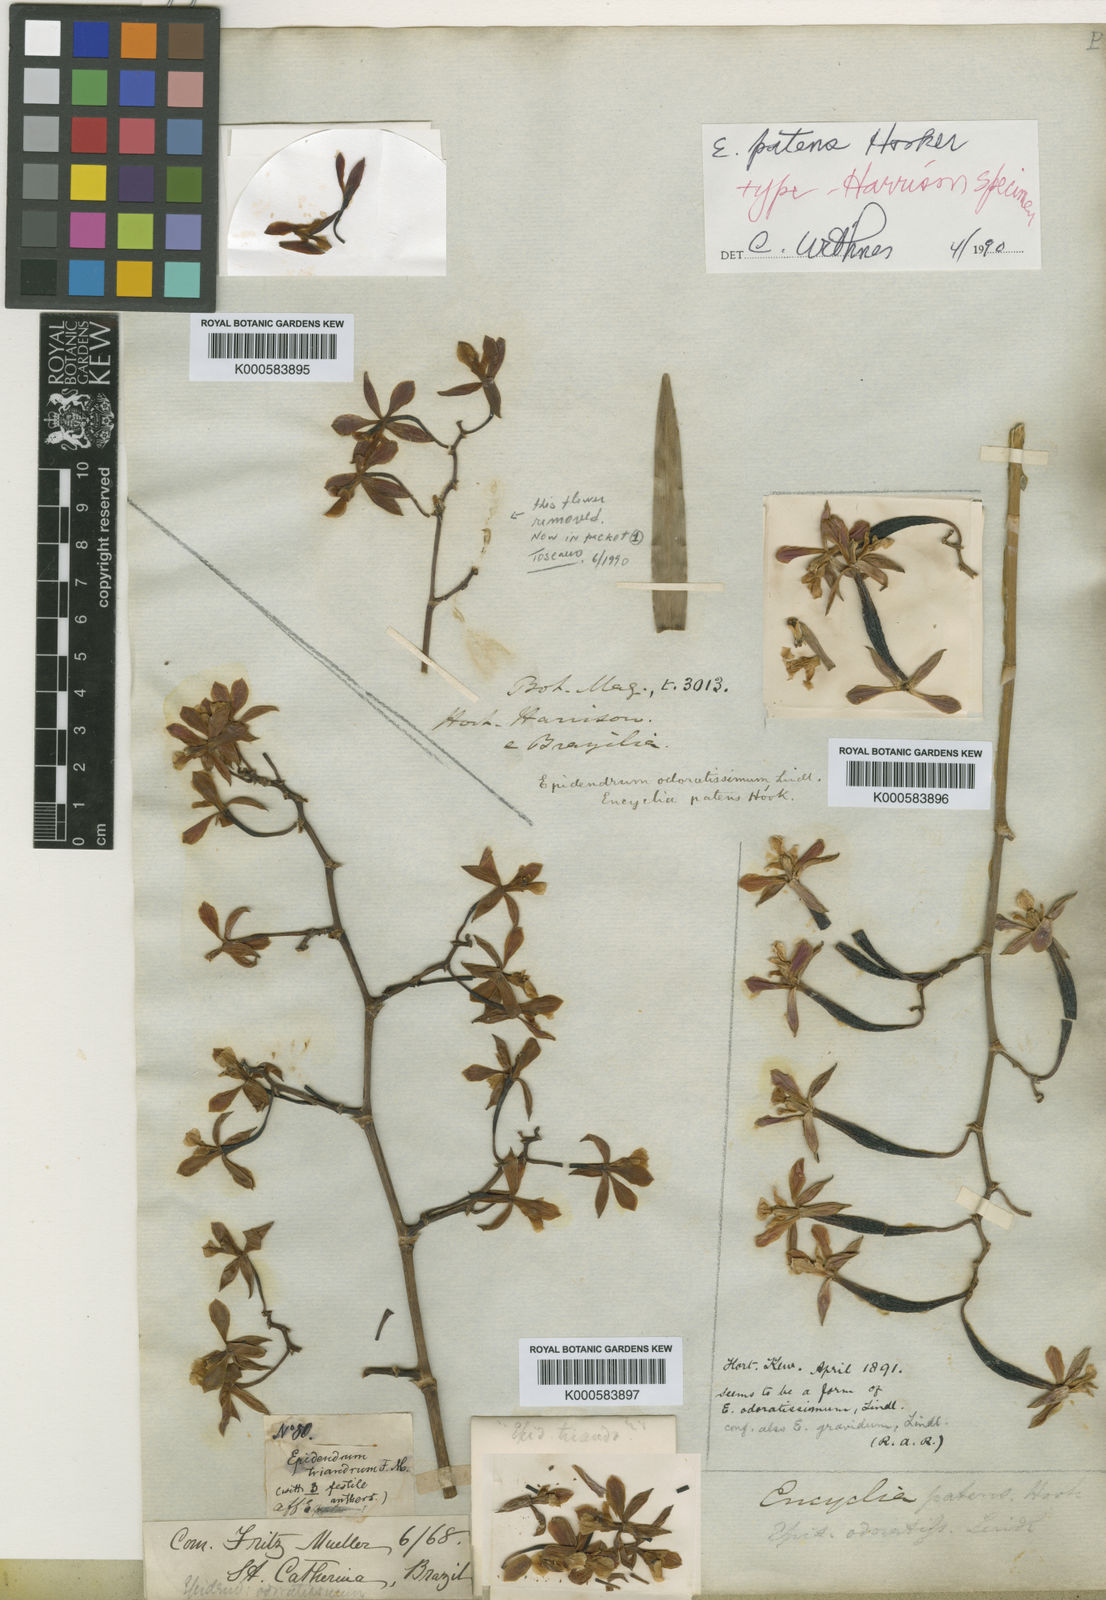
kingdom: Plantae
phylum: Tracheophyta
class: Liliopsida
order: Asparagales
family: Orchidaceae
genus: Encyclia
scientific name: Encyclia patens
